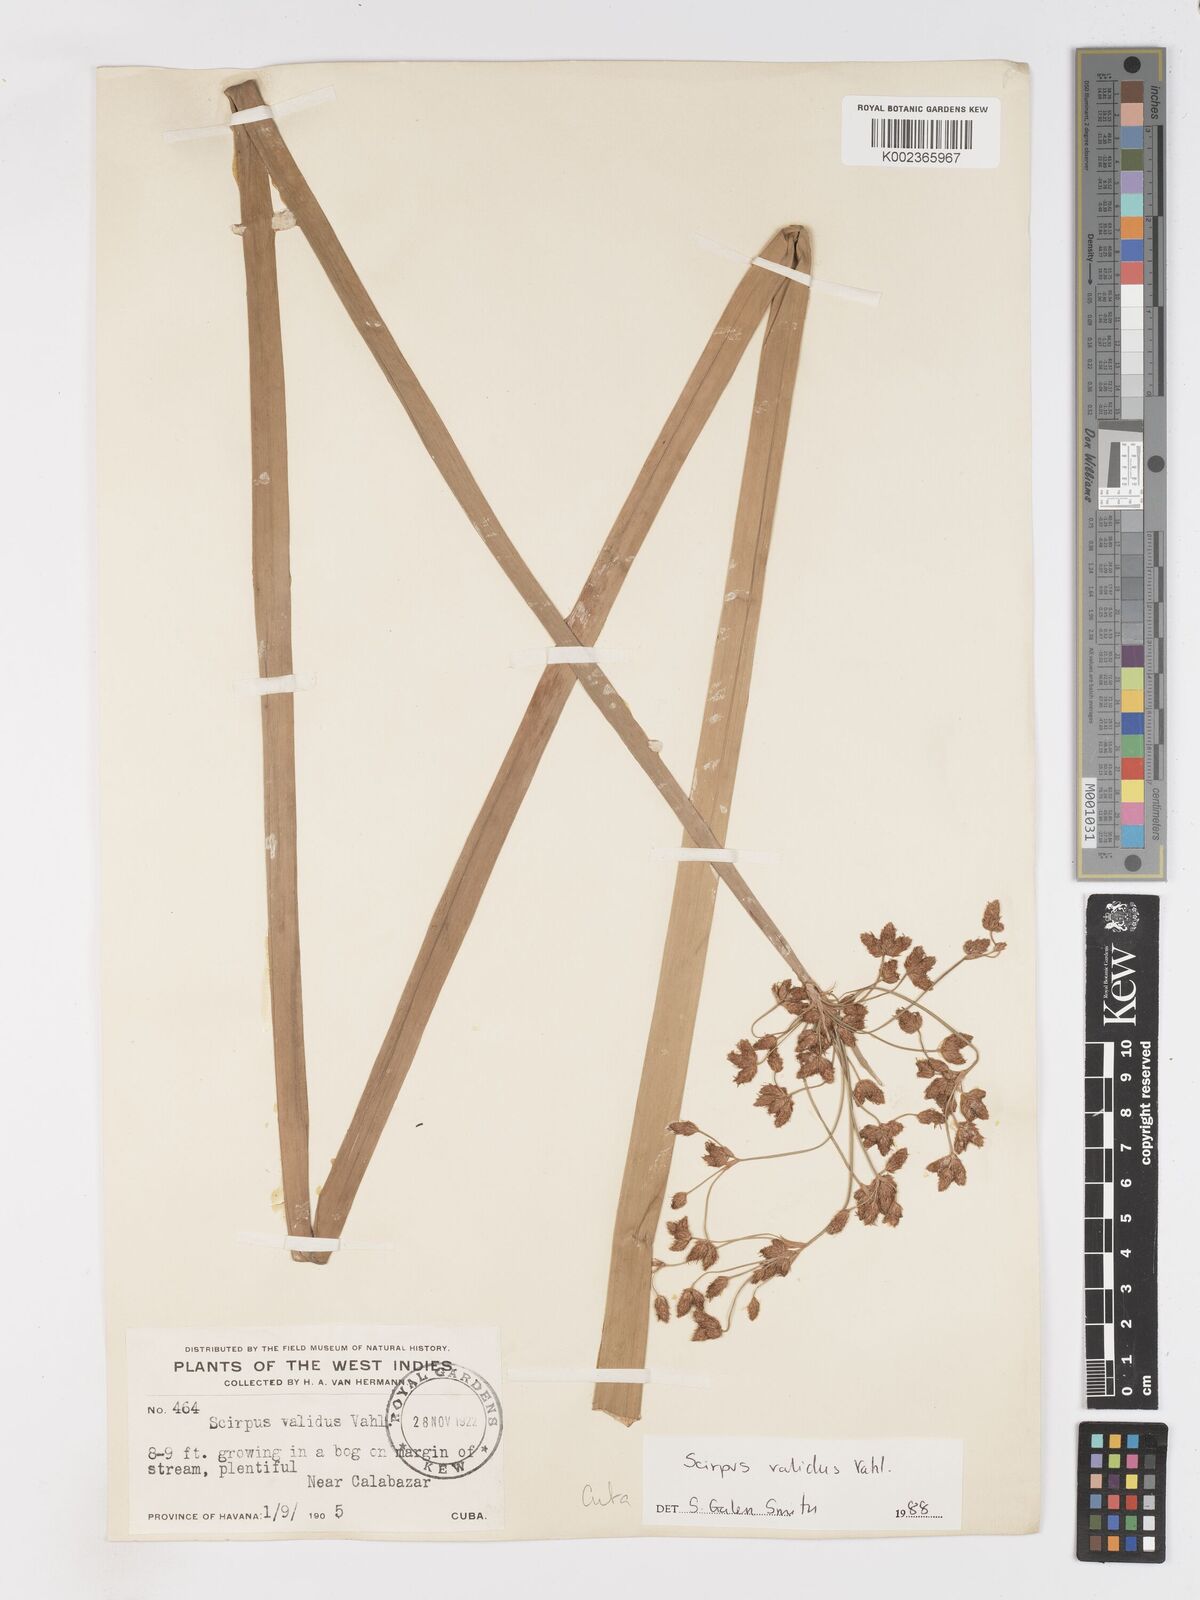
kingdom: Plantae
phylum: Tracheophyta
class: Liliopsida
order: Poales
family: Cyperaceae
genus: Schoenoplectus
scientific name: Schoenoplectus lacustris
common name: Common club-rush
